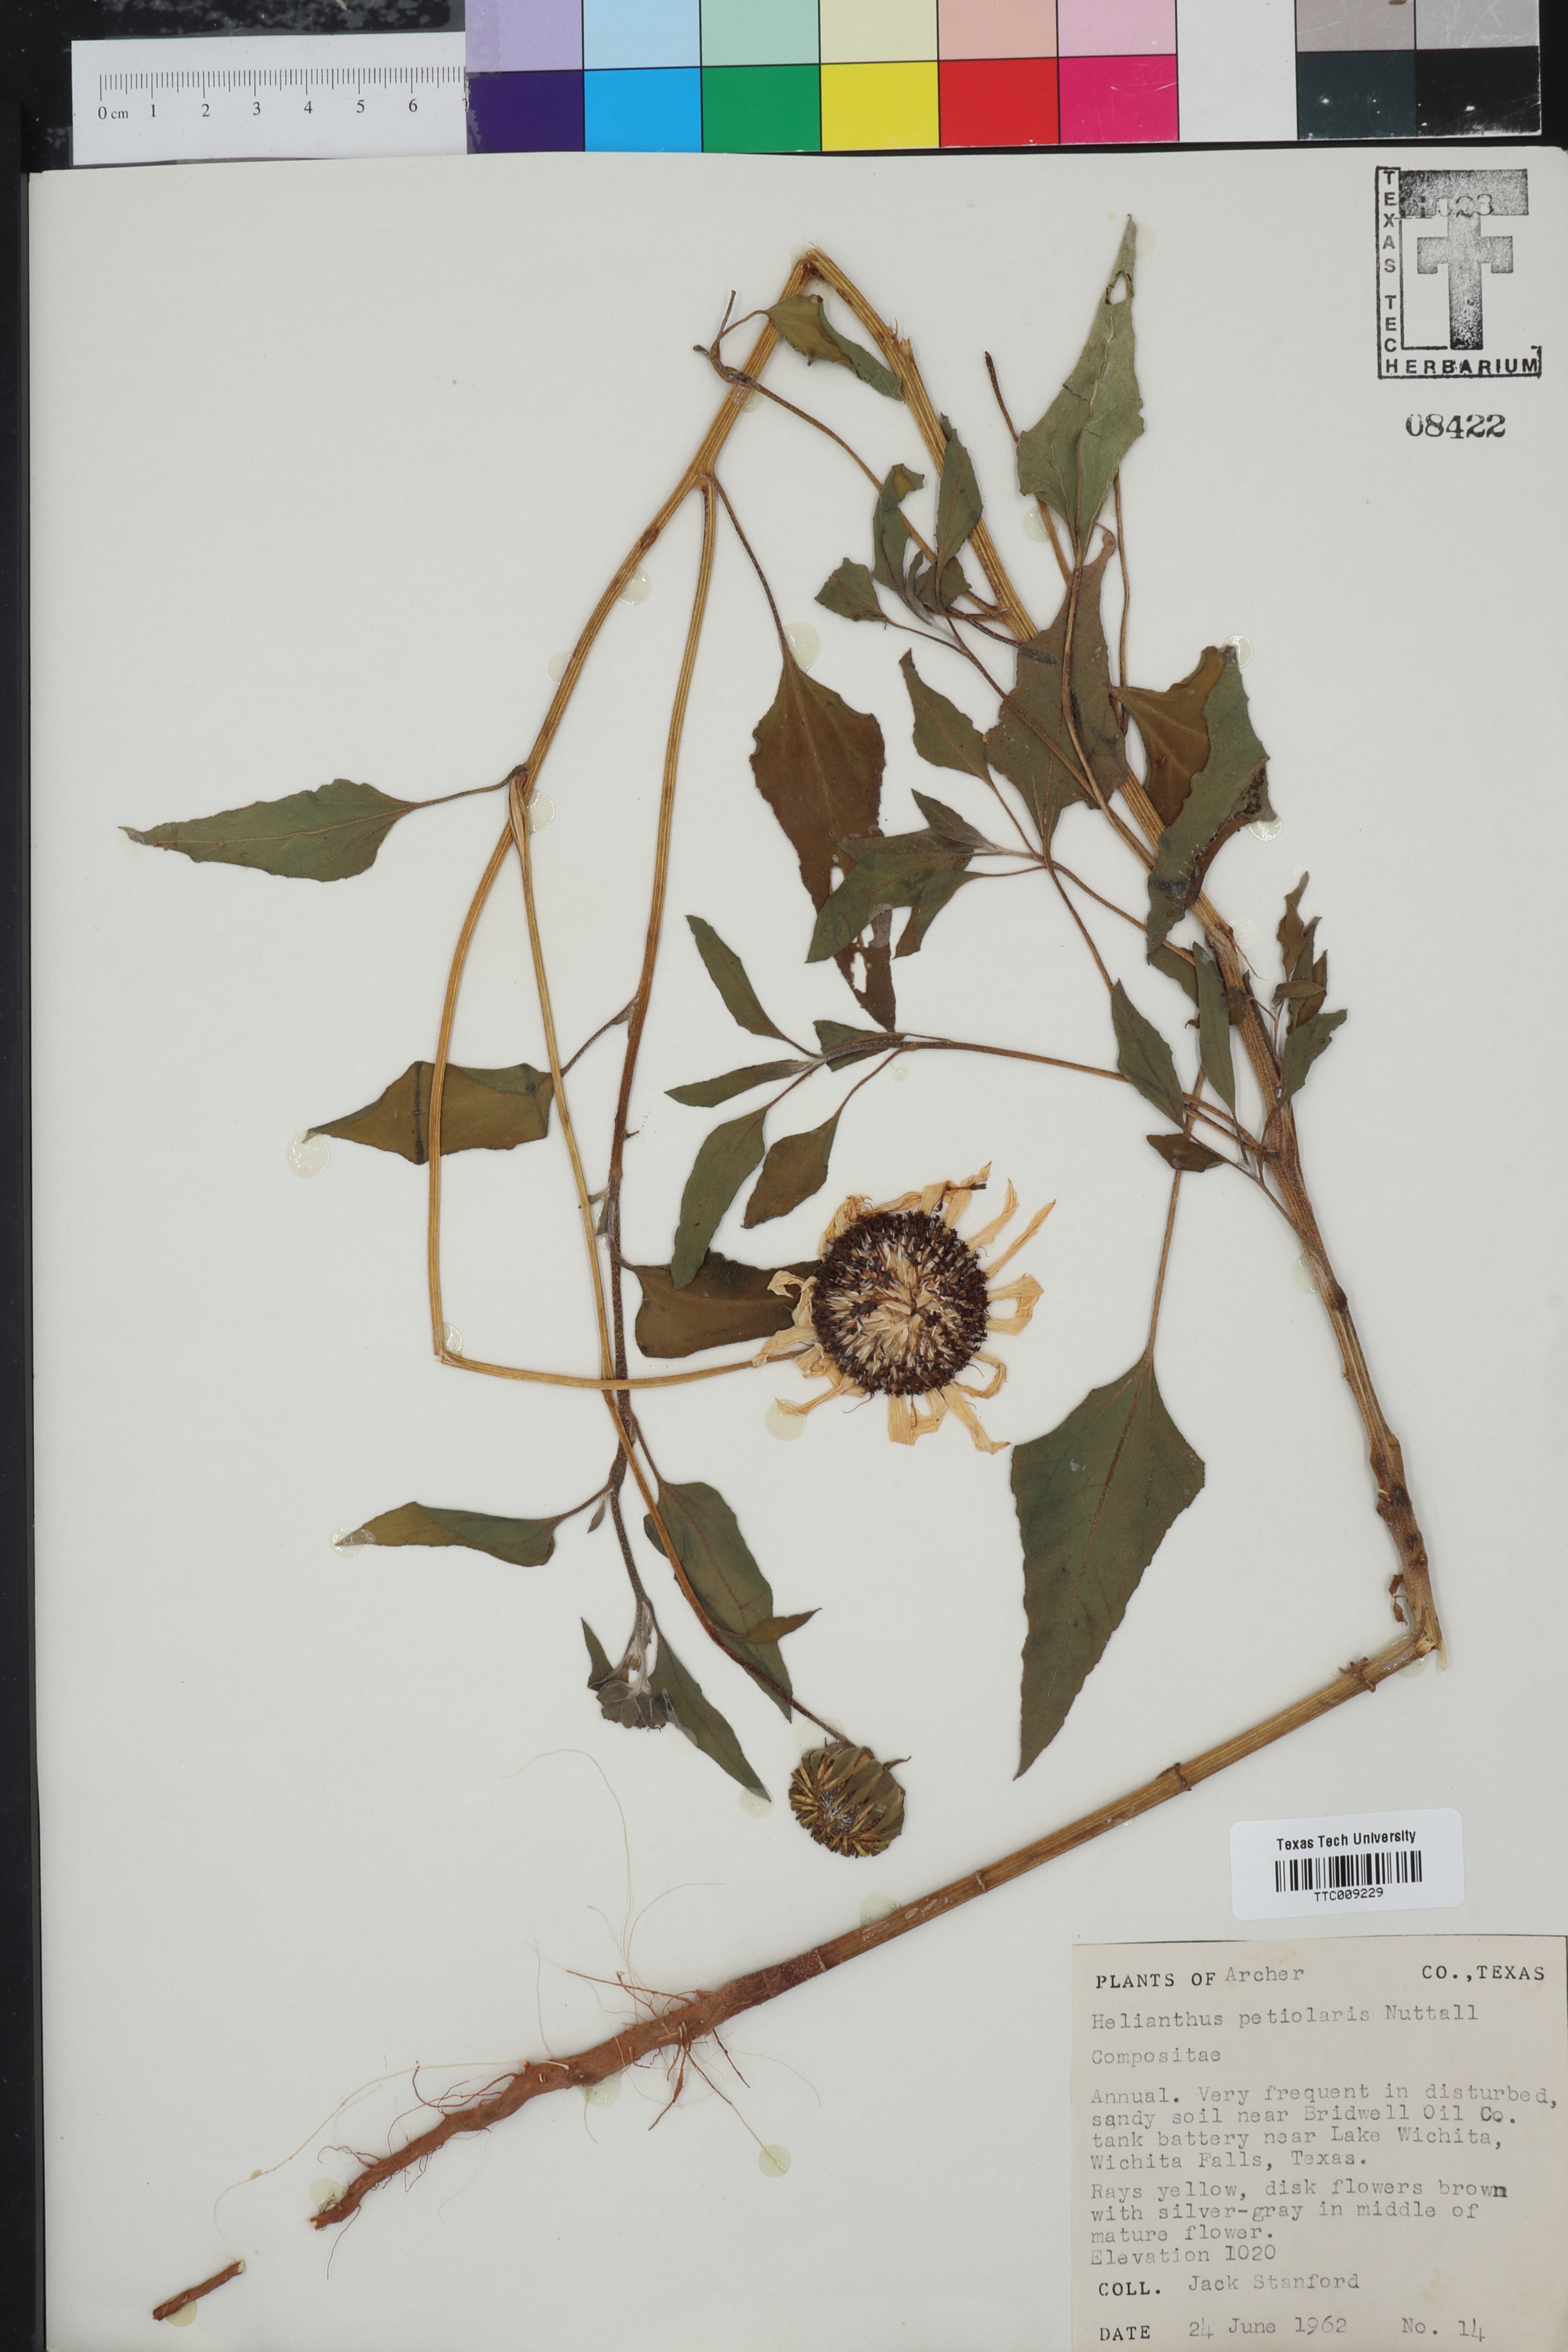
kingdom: Plantae
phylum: Tracheophyta
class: Magnoliopsida
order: Asterales
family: Asteraceae
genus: Helianthus
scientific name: Helianthus petiolaris
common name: Lesser sunflower
